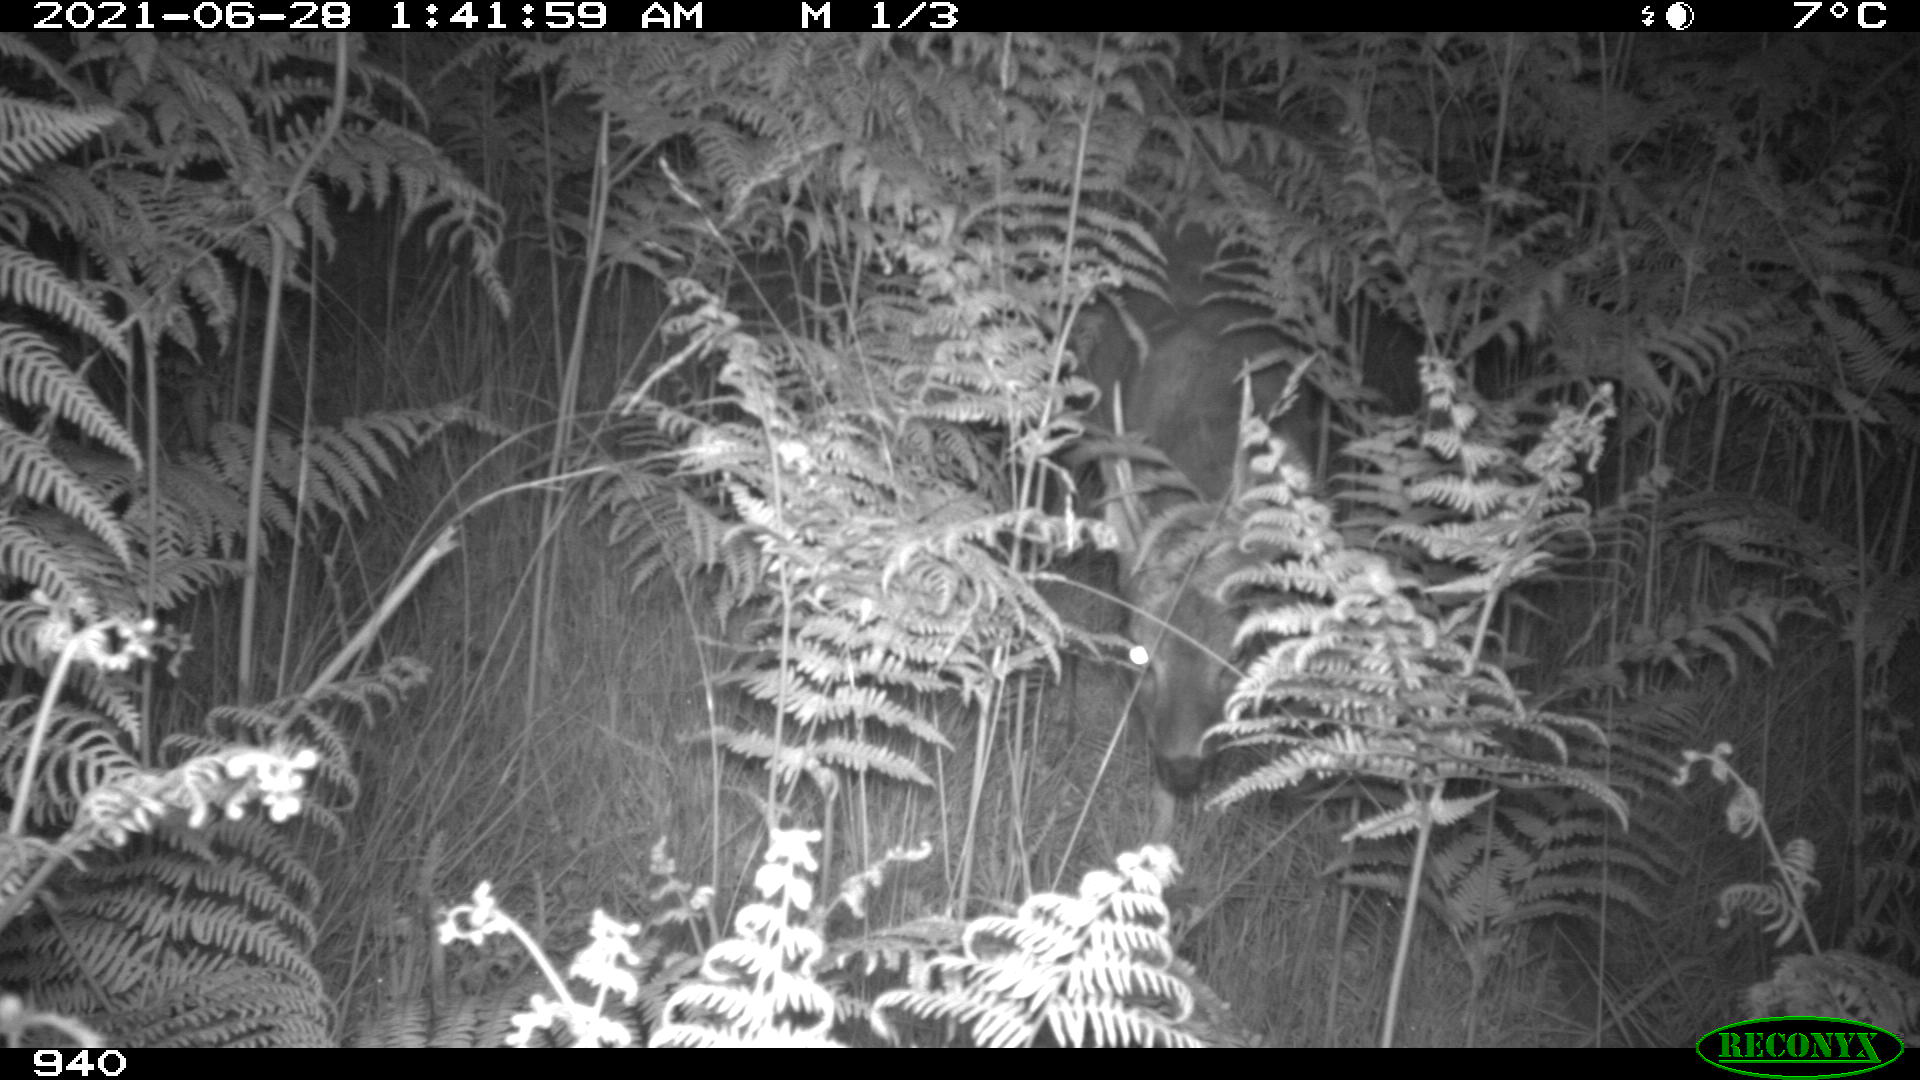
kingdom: Animalia
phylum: Chordata
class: Mammalia
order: Artiodactyla
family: Cervidae
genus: Capreolus
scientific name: Capreolus capreolus
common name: Western roe deer
